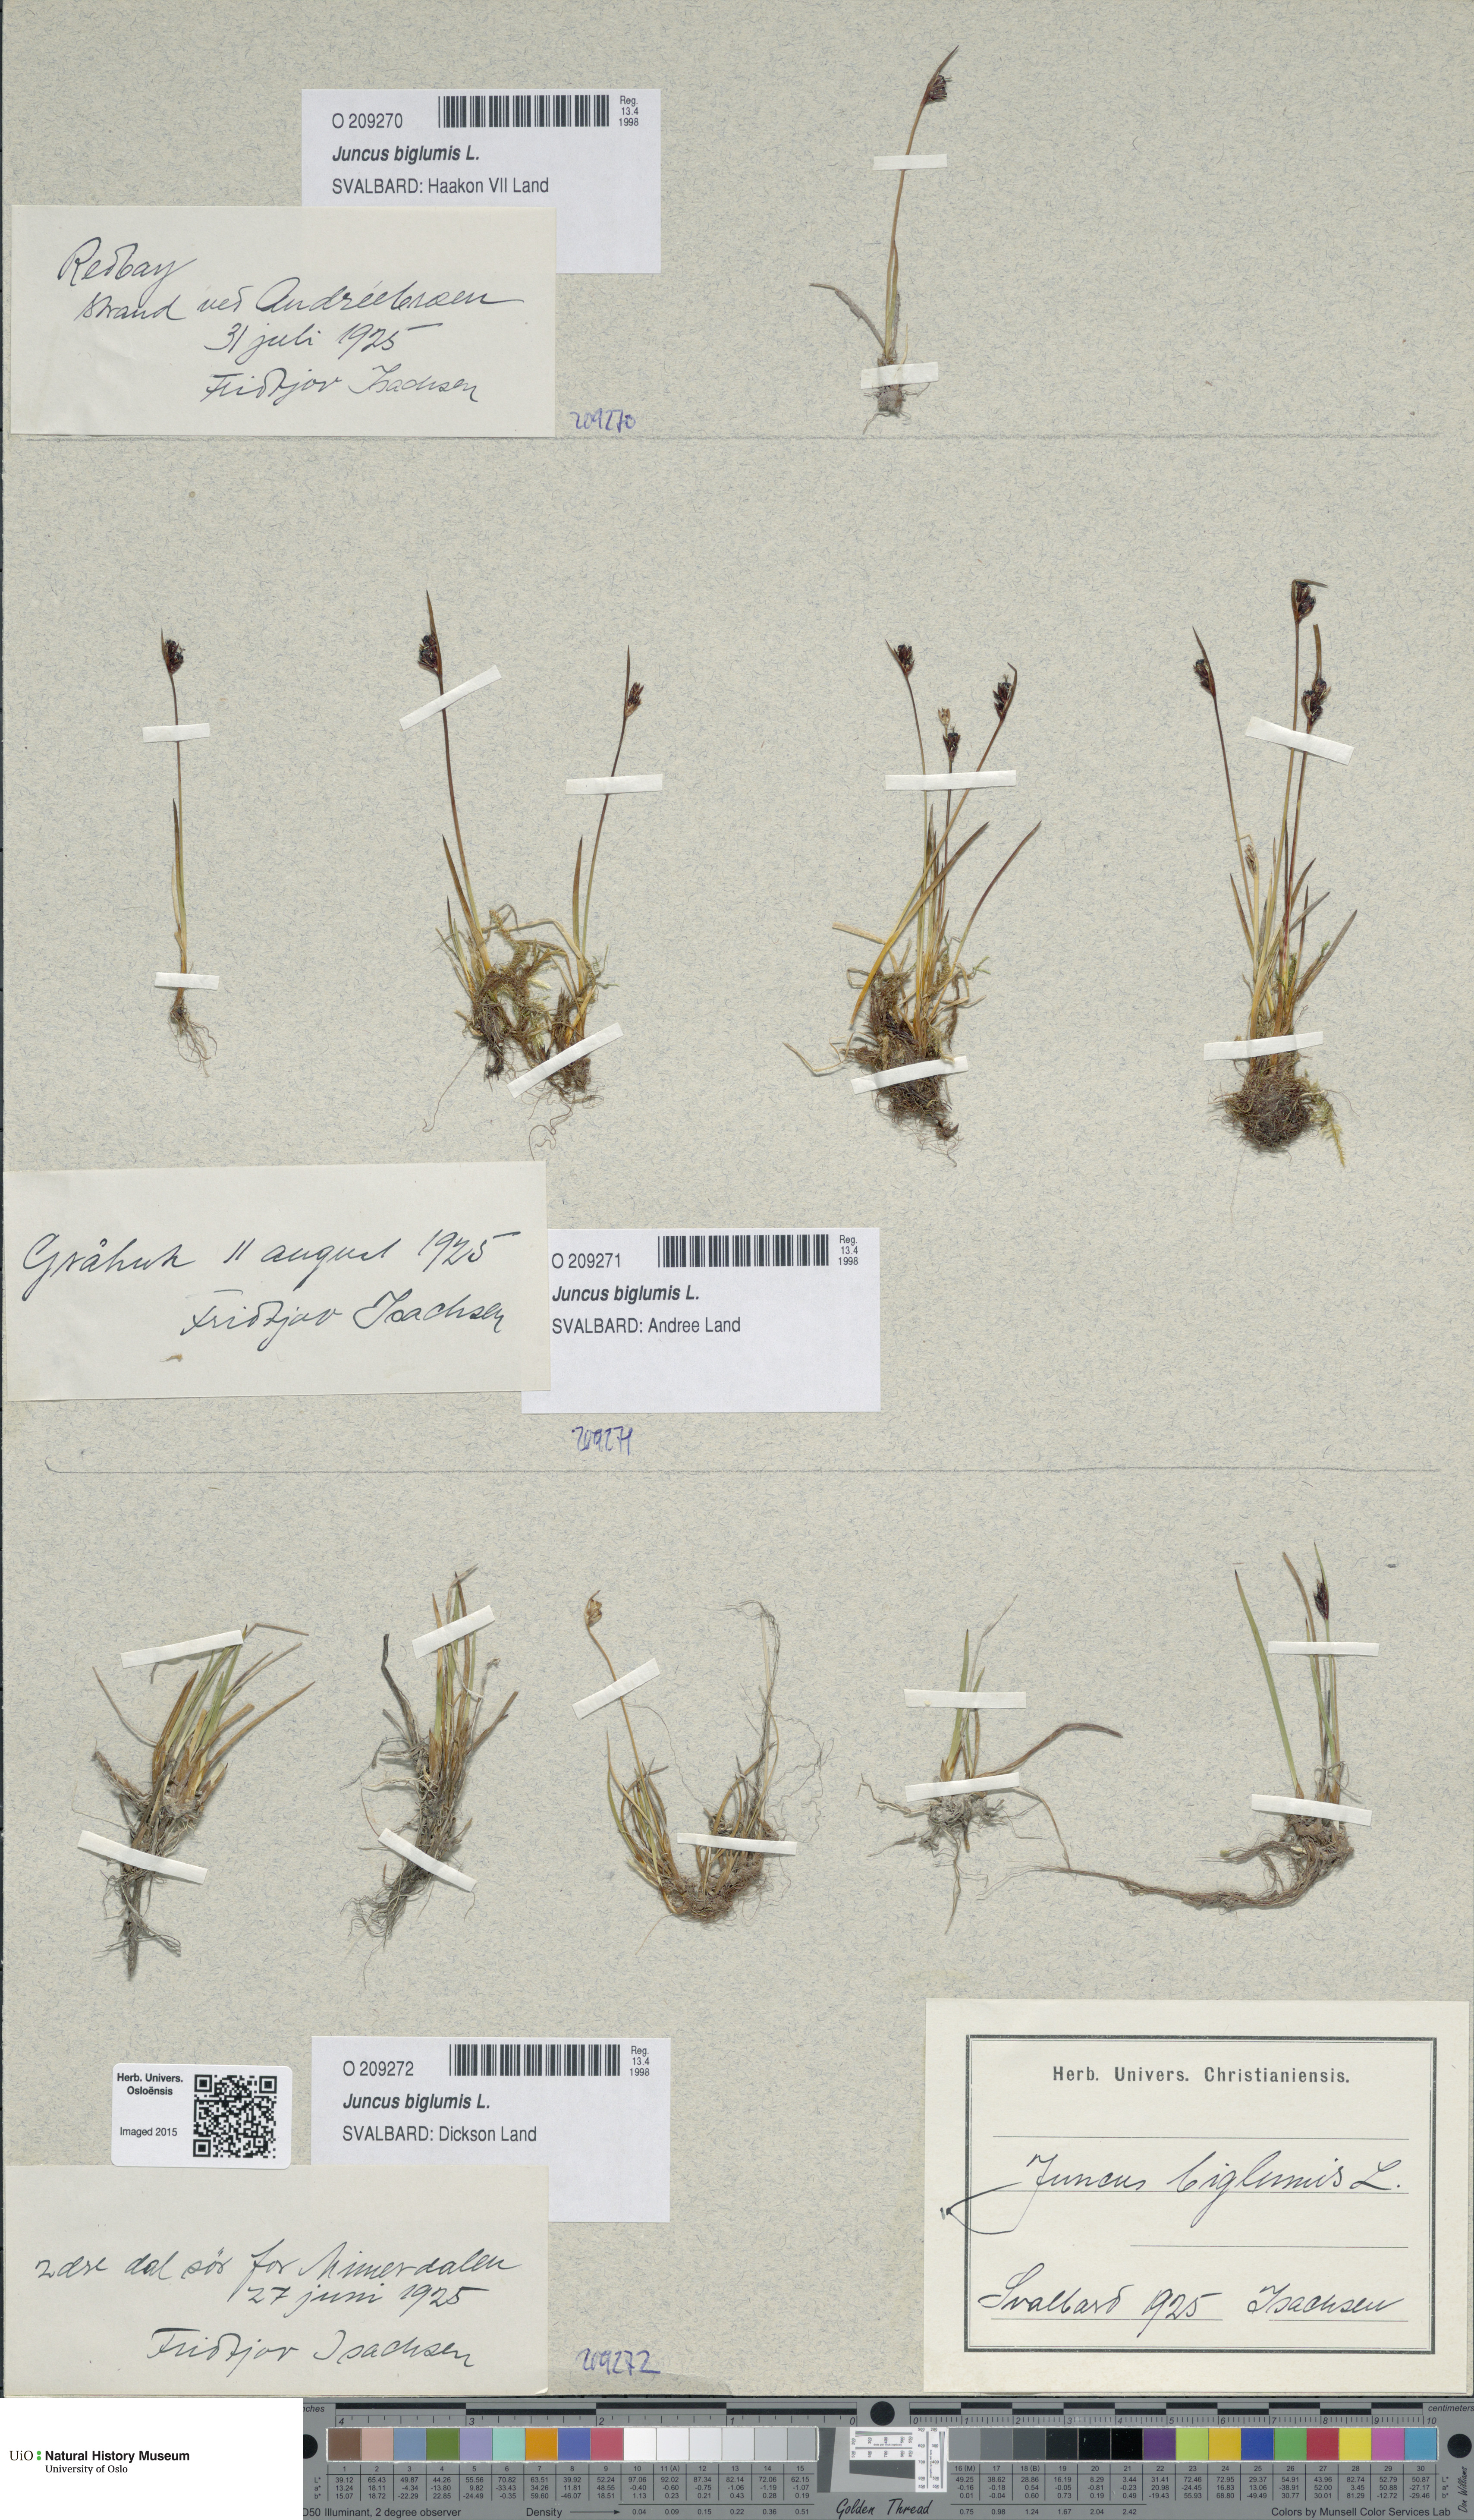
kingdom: Plantae
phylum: Tracheophyta
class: Liliopsida
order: Poales
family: Juncaceae
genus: Juncus
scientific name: Juncus biglumis
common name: Two-flowered rush
